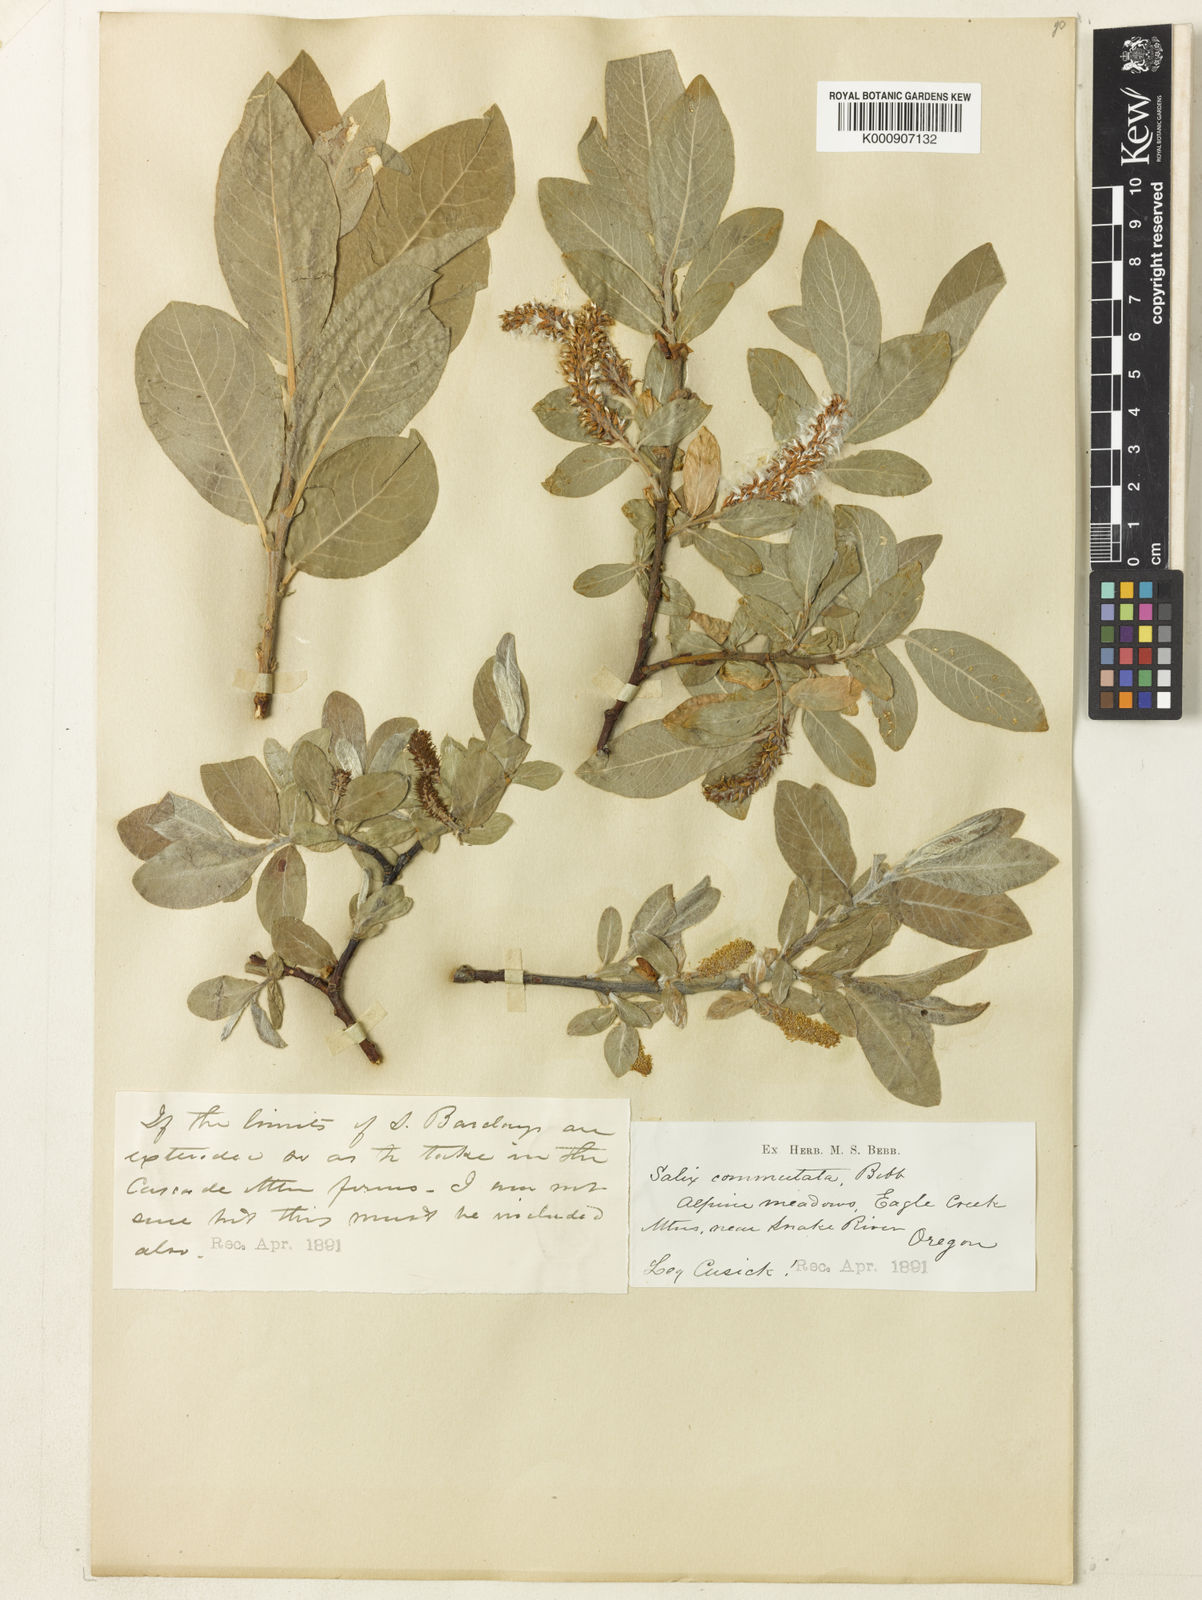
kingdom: Plantae
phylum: Tracheophyta
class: Magnoliopsida
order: Malpighiales
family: Salicaceae
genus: Salix
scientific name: Salix barclayi
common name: Mountain willow
